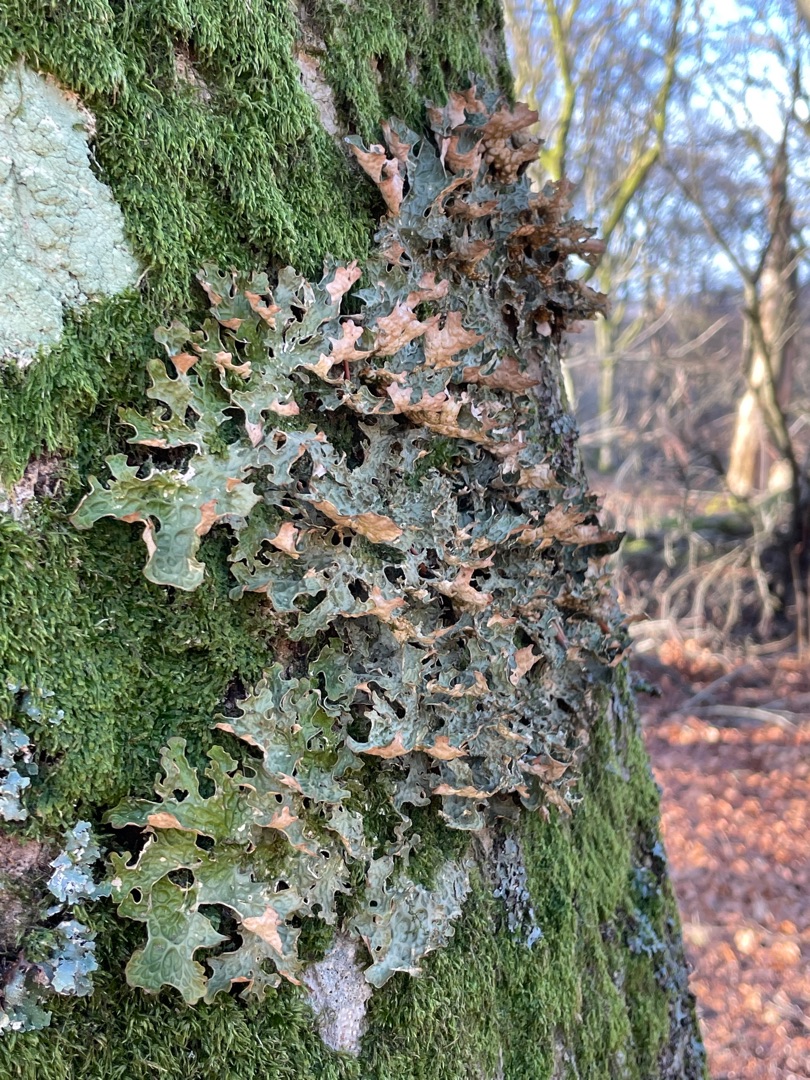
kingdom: Fungi
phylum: Ascomycota
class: Lecanoromycetes
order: Peltigerales
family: Lobariaceae
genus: Lobaria
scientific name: Lobaria pulmonaria
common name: Almindelig lungelav
